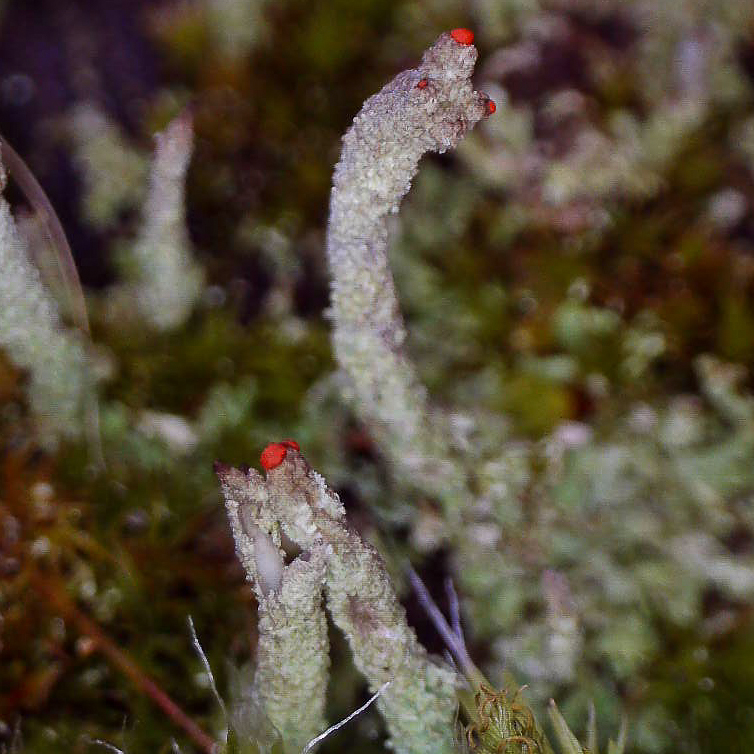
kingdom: Fungi
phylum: Ascomycota
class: Lecanoromycetes
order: Lecanorales
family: Cladoniaceae
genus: Cladonia
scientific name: Cladonia floerkeana
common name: lakrød bægerlav
